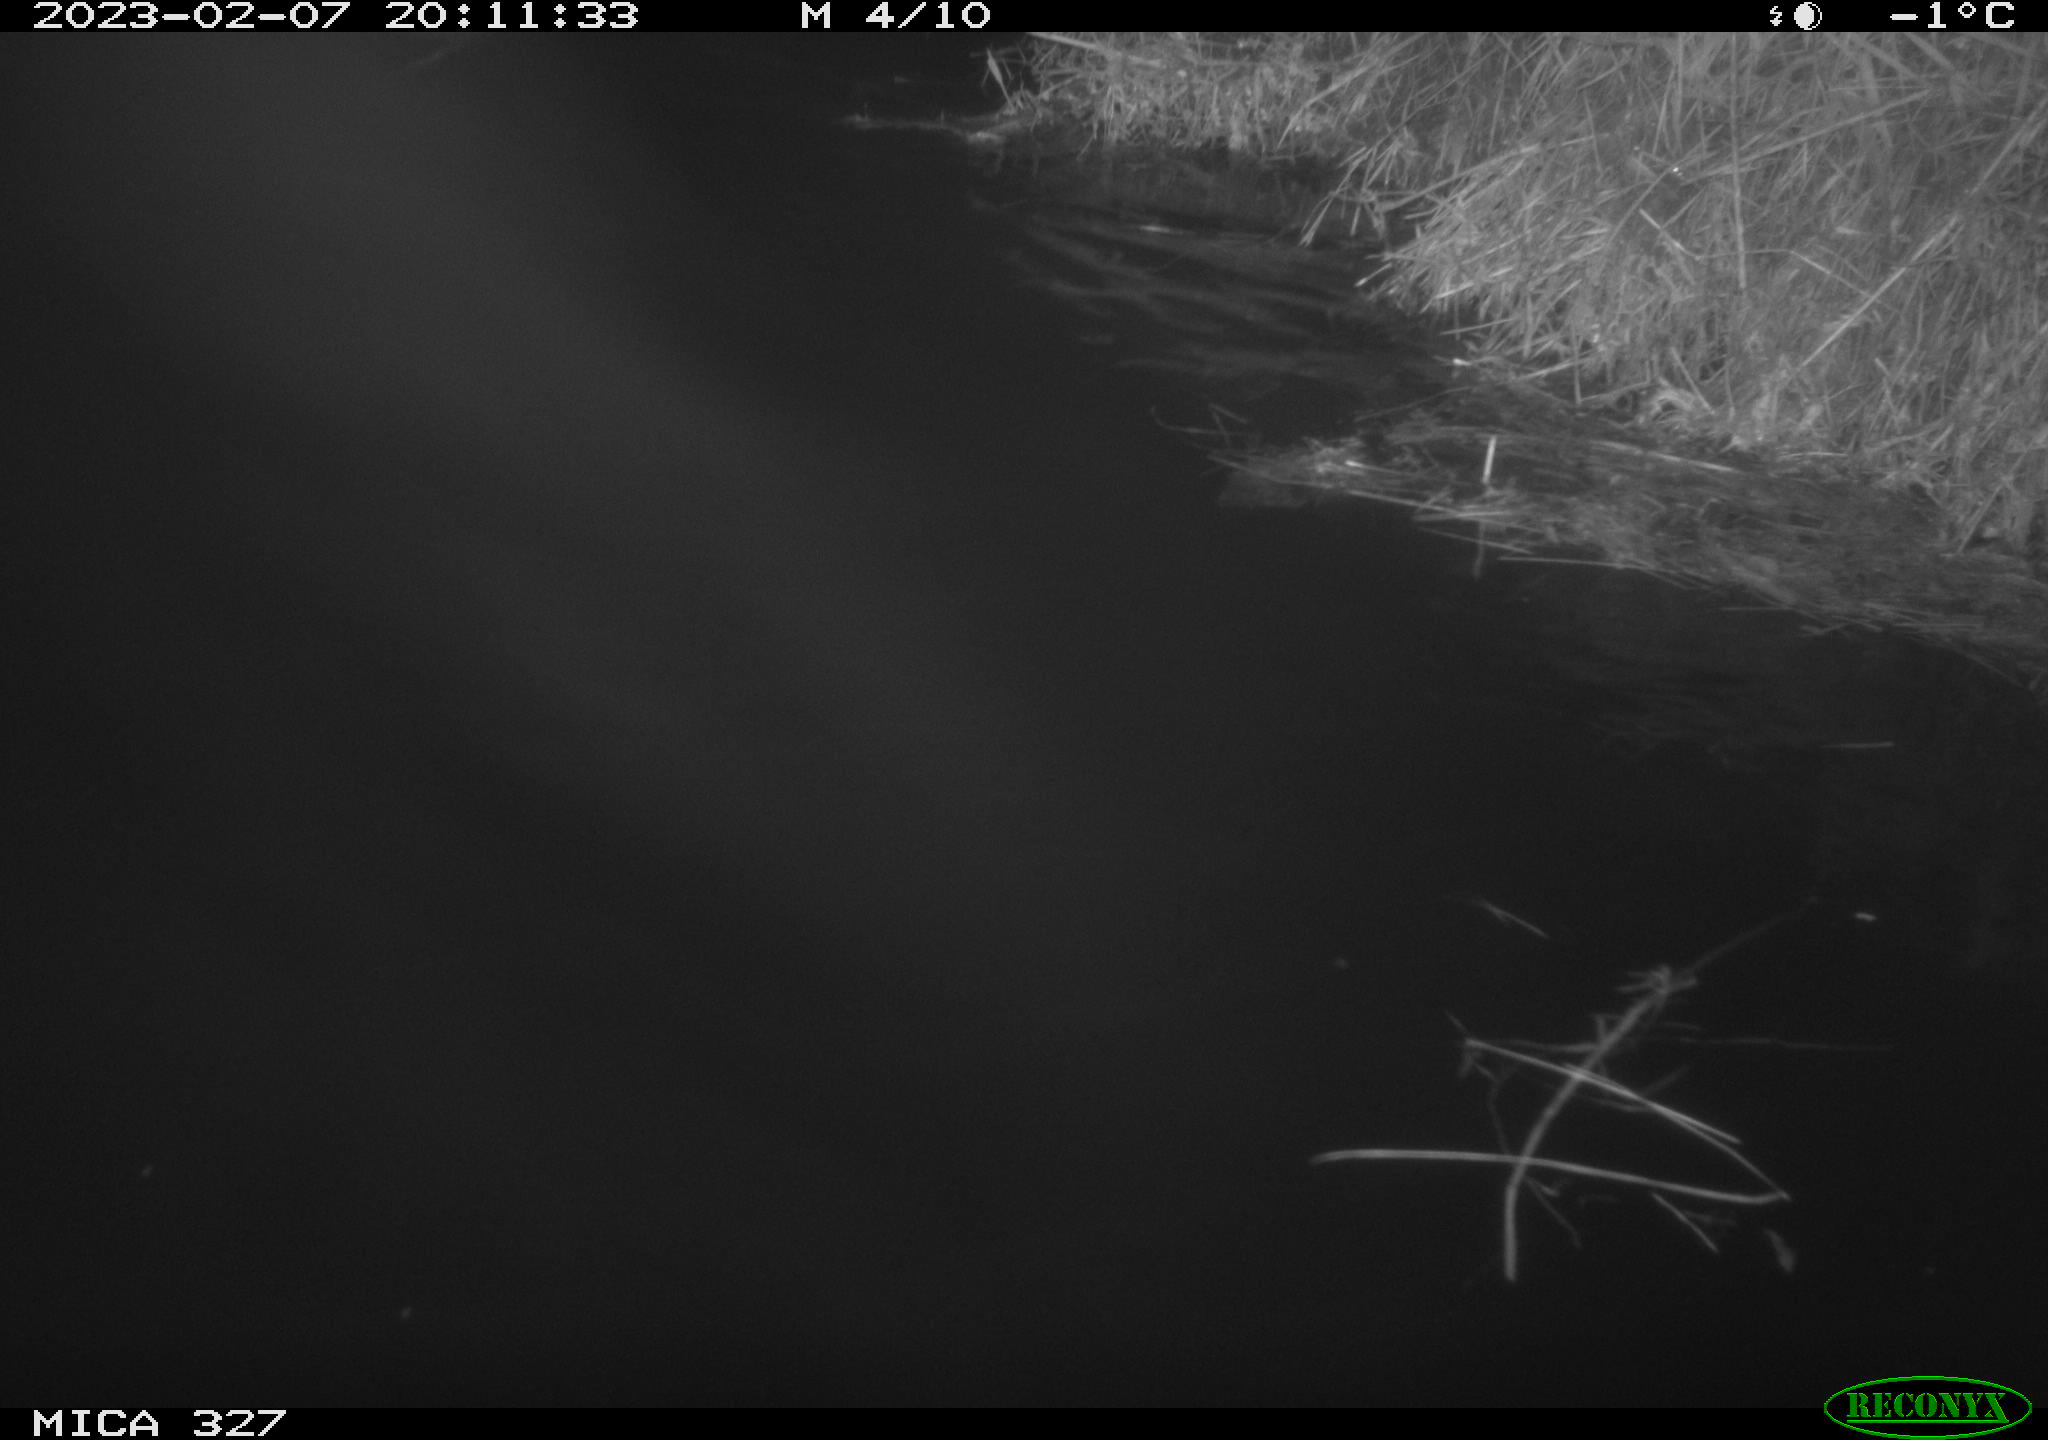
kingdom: Animalia
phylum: Chordata
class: Mammalia
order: Rodentia
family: Cricetidae
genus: Ondatra
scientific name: Ondatra zibethicus
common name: Muskrat
